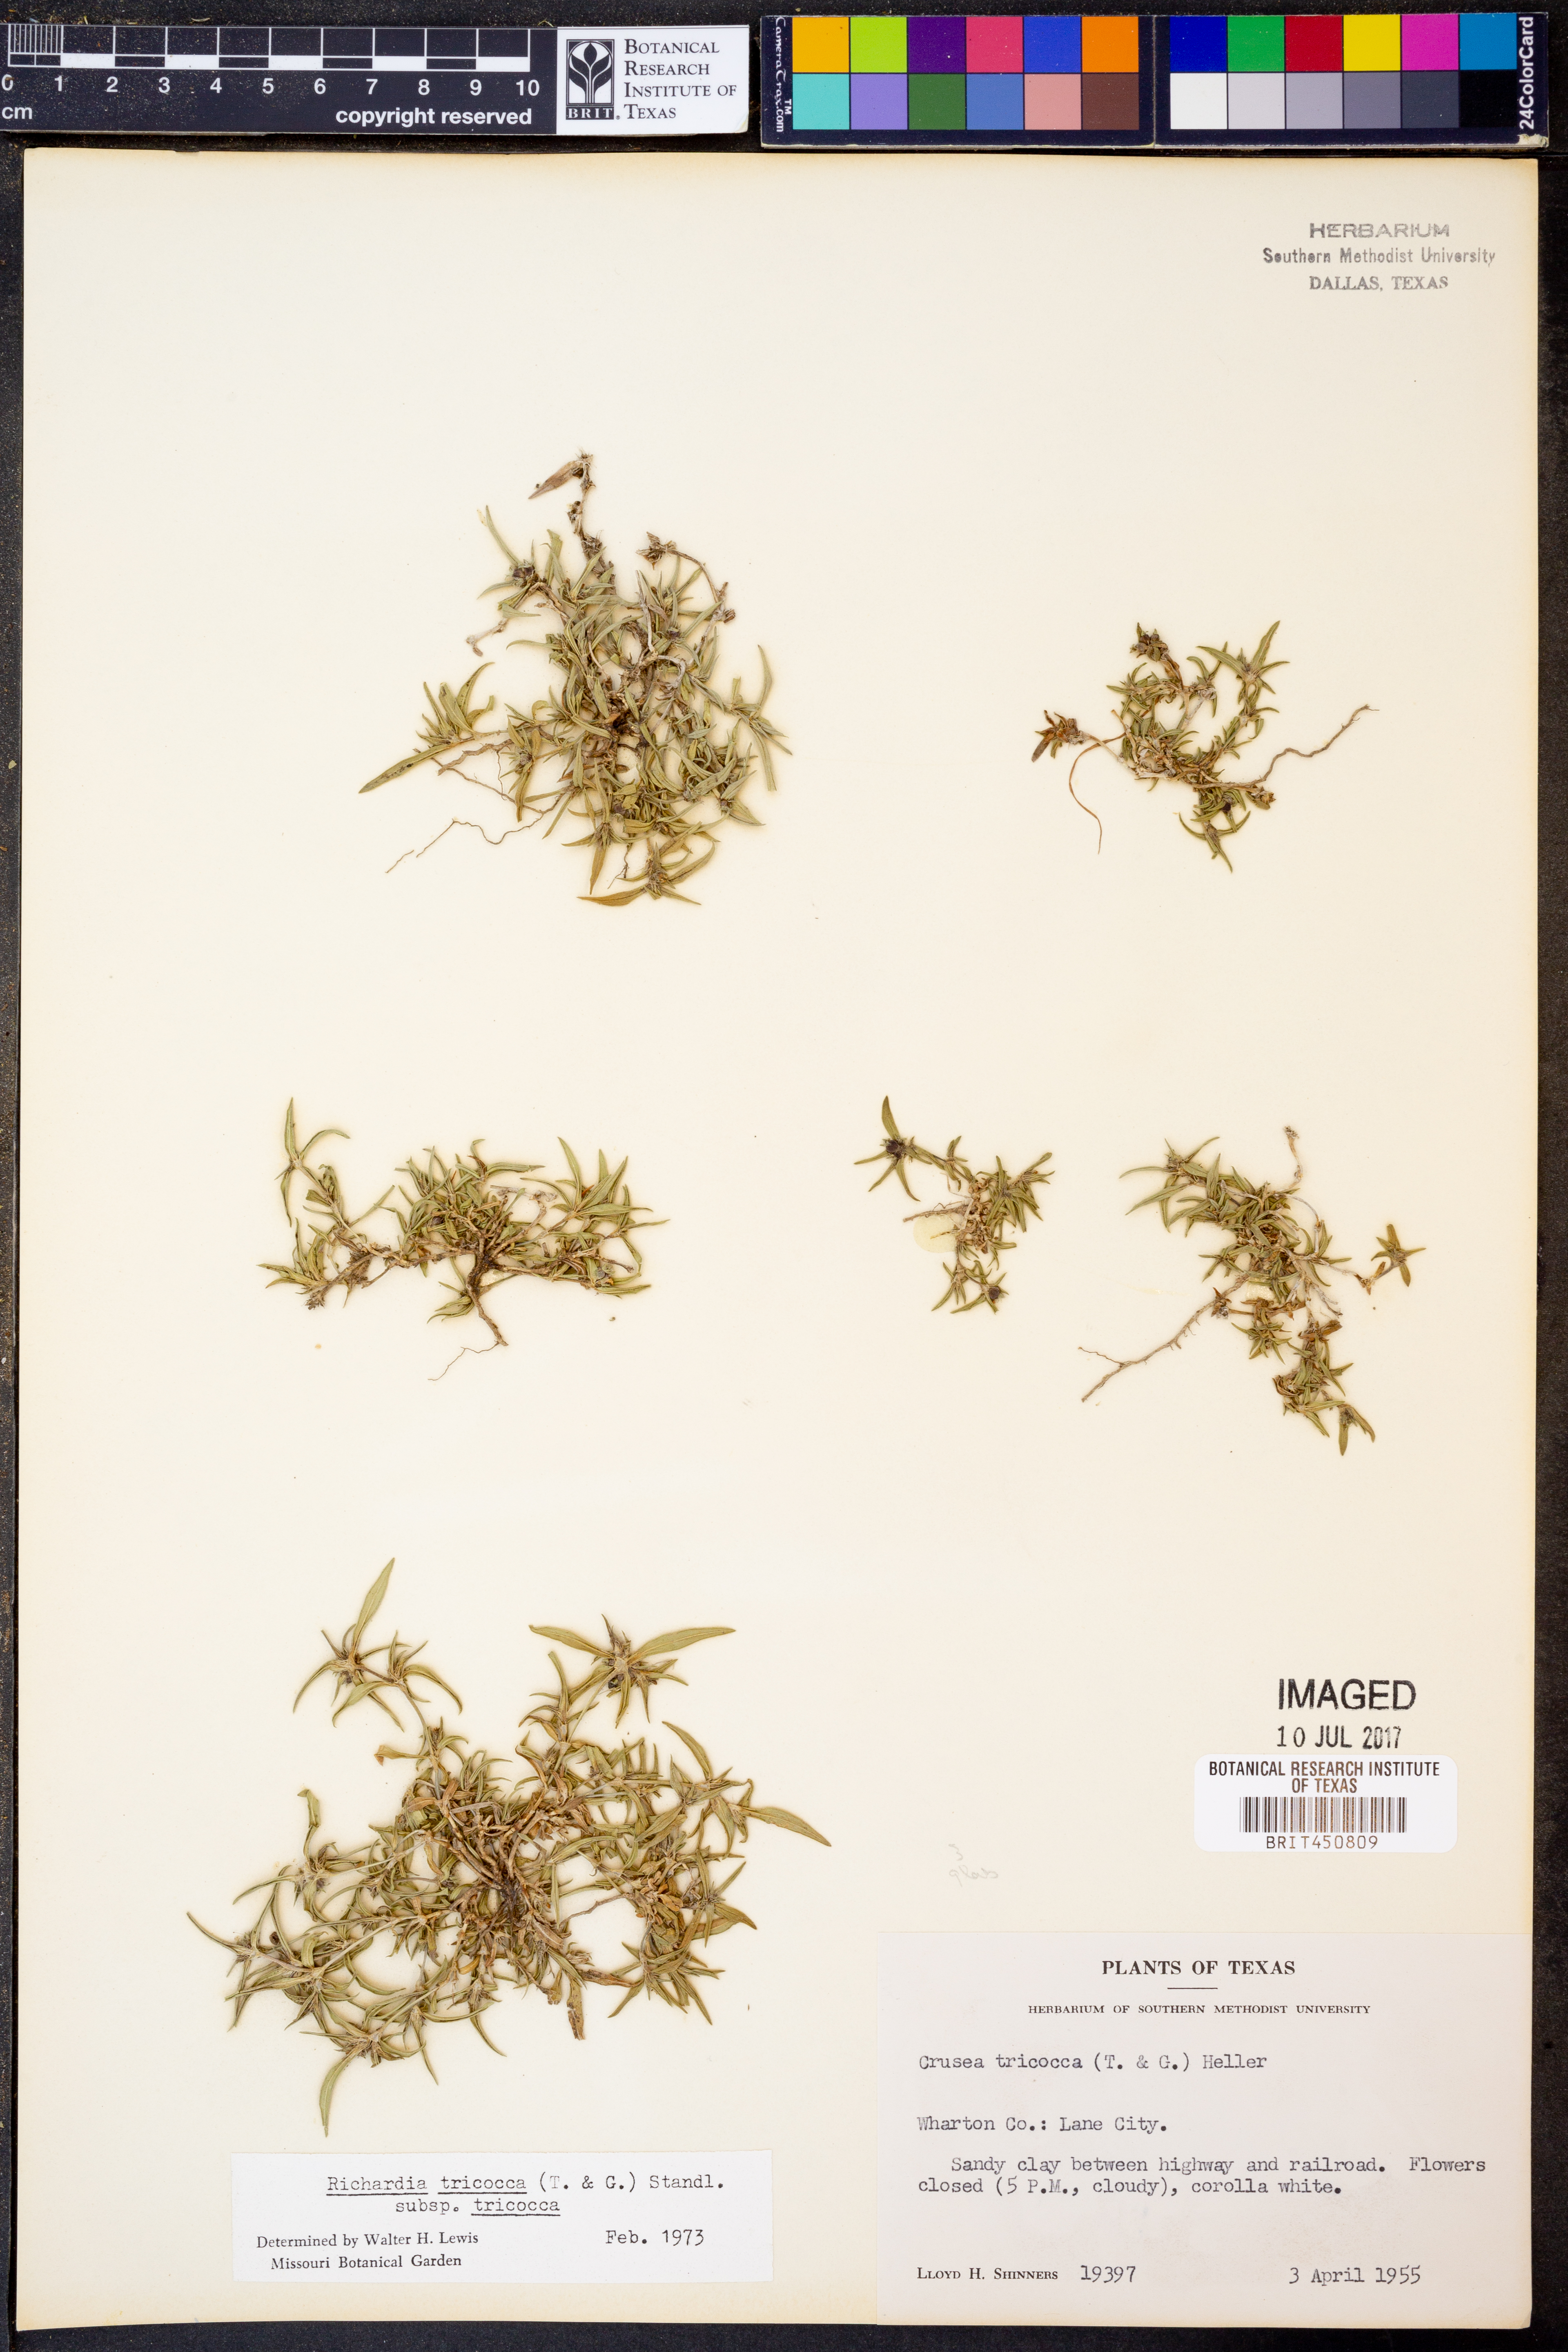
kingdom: Plantae
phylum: Tracheophyta
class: Magnoliopsida
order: Gentianales
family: Rubiaceae
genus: Richardia
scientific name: Richardia tricocca
